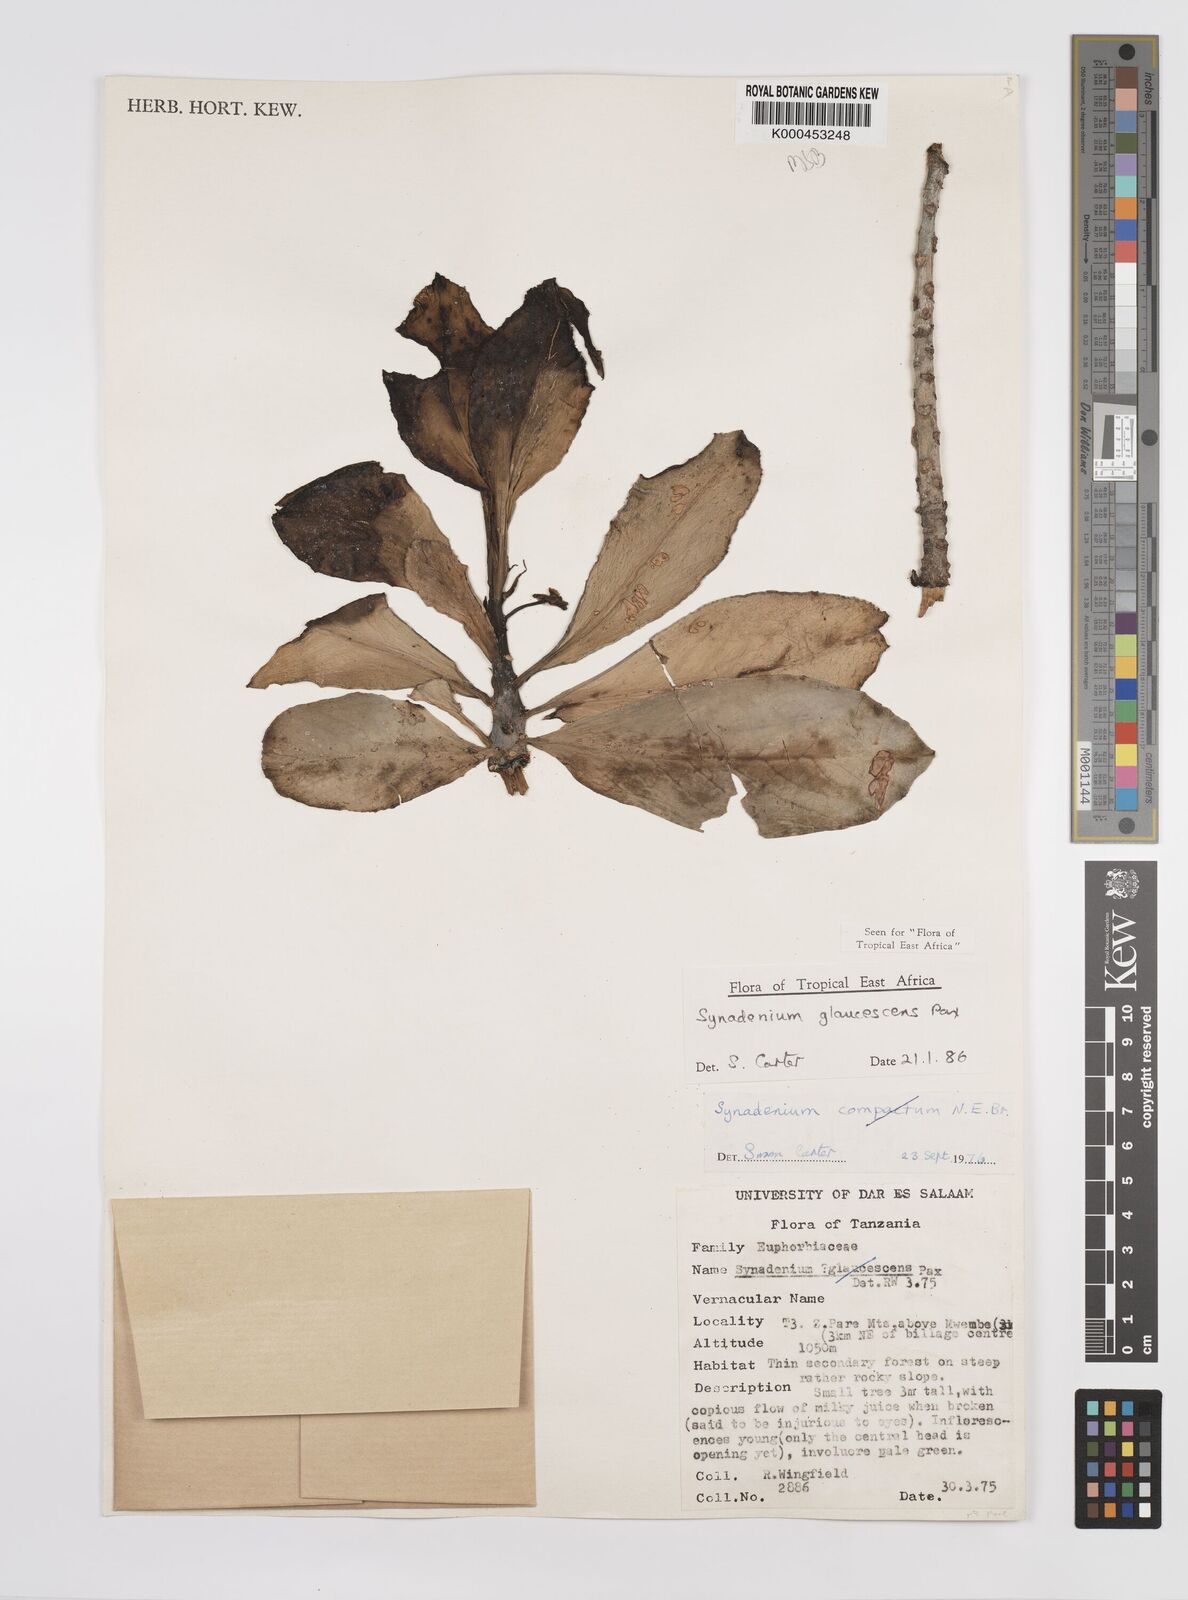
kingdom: Plantae
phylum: Tracheophyta
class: Magnoliopsida
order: Malpighiales
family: Euphorbiaceae
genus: Euphorbia
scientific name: Euphorbia neoglaucescens
